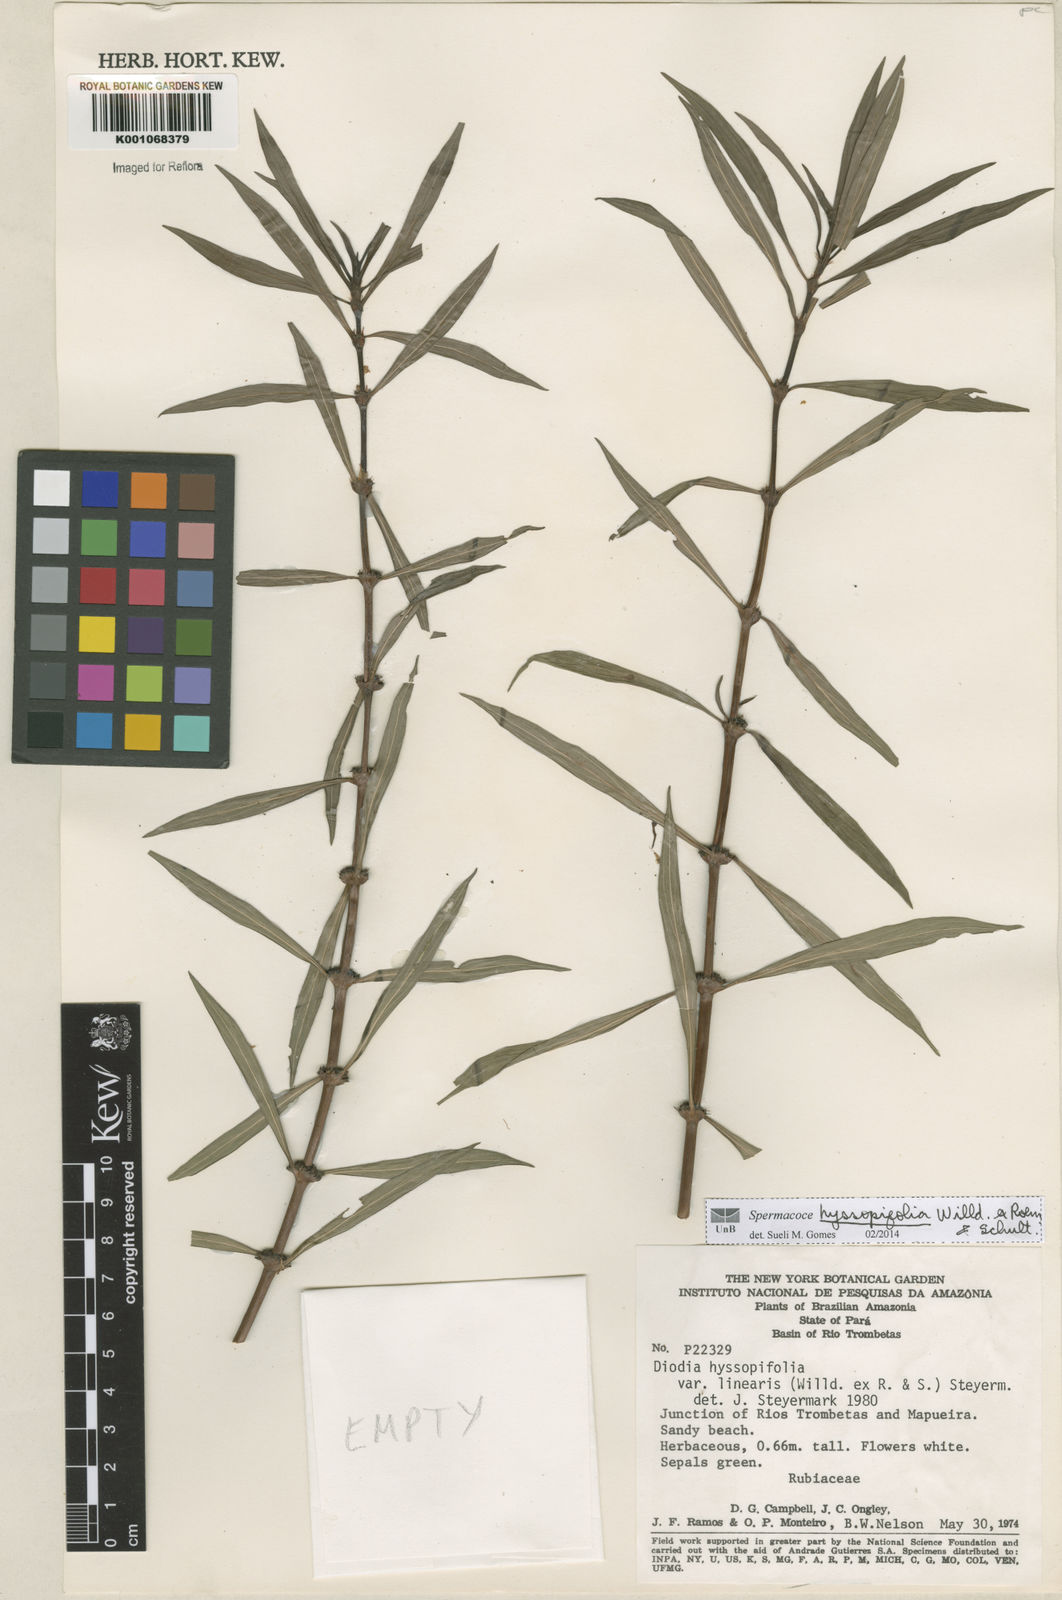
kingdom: Plantae
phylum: Tracheophyta
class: Magnoliopsida
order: Gentianales
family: Rubiaceae
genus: Spermacoce
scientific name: Spermacoce
